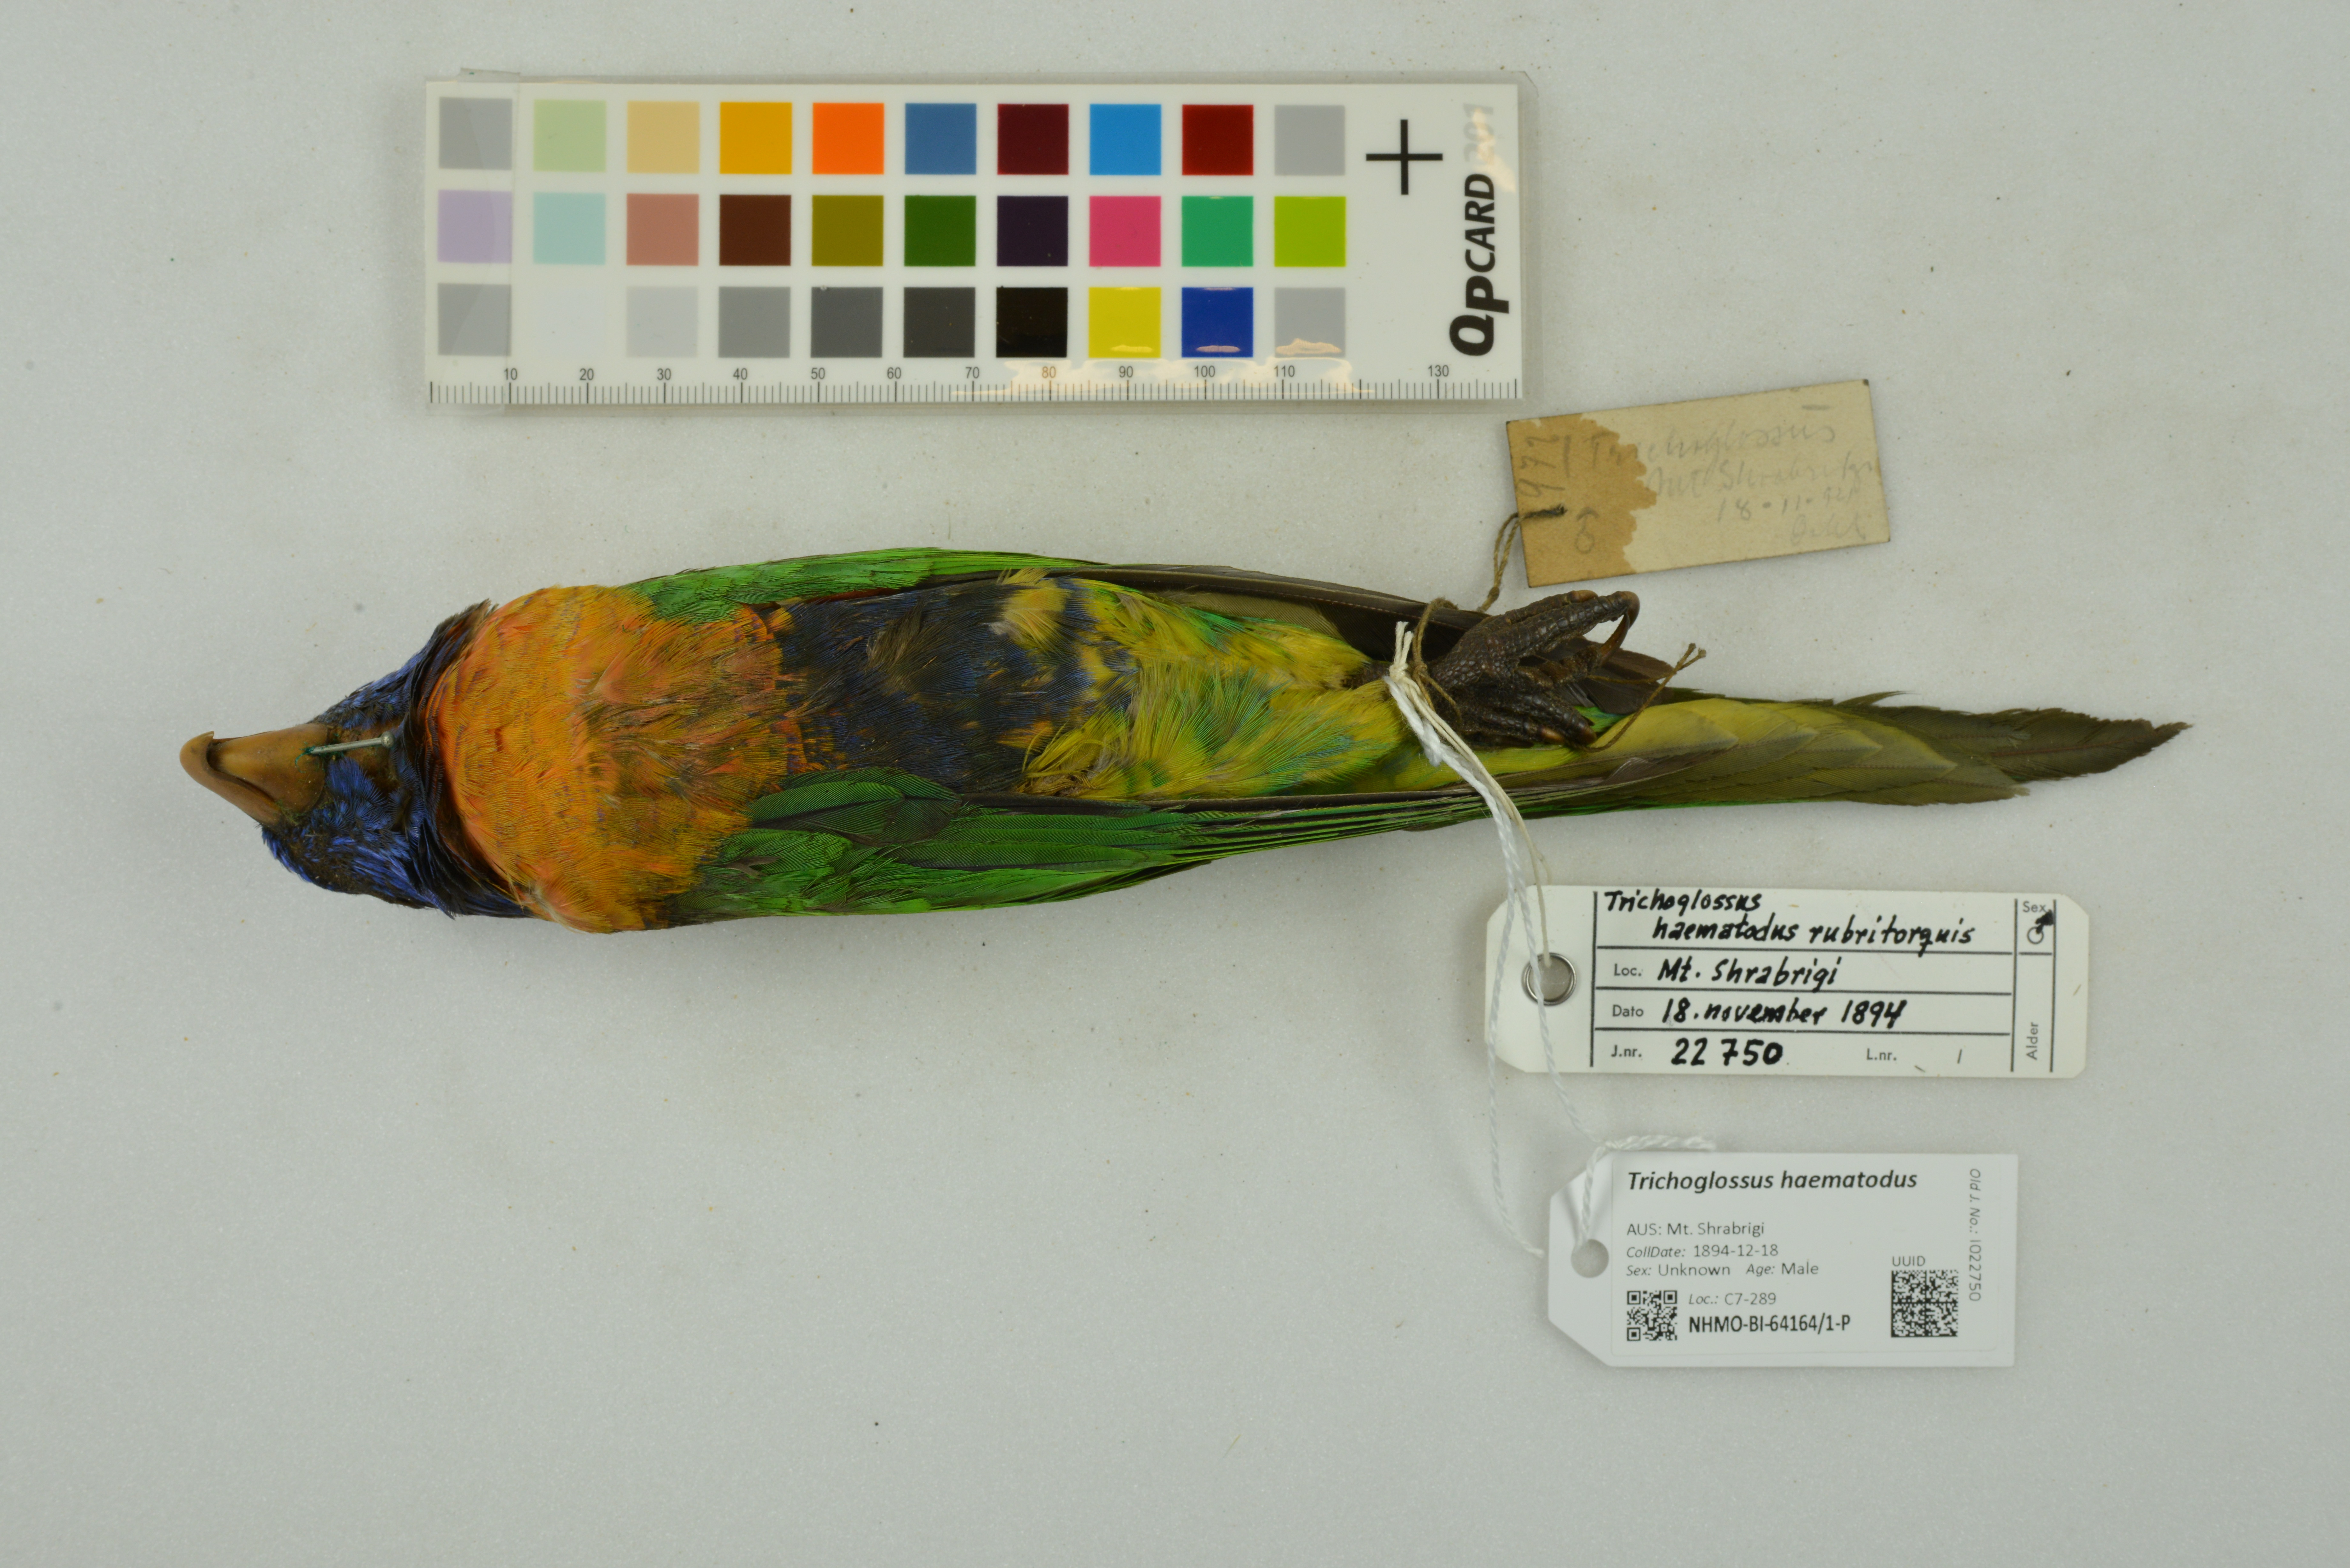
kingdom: Animalia
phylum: Chordata
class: Aves
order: Psittaciformes
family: Psittacidae
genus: Trichoglossus
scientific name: Trichoglossus haematodus
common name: Coconut lorikeet
